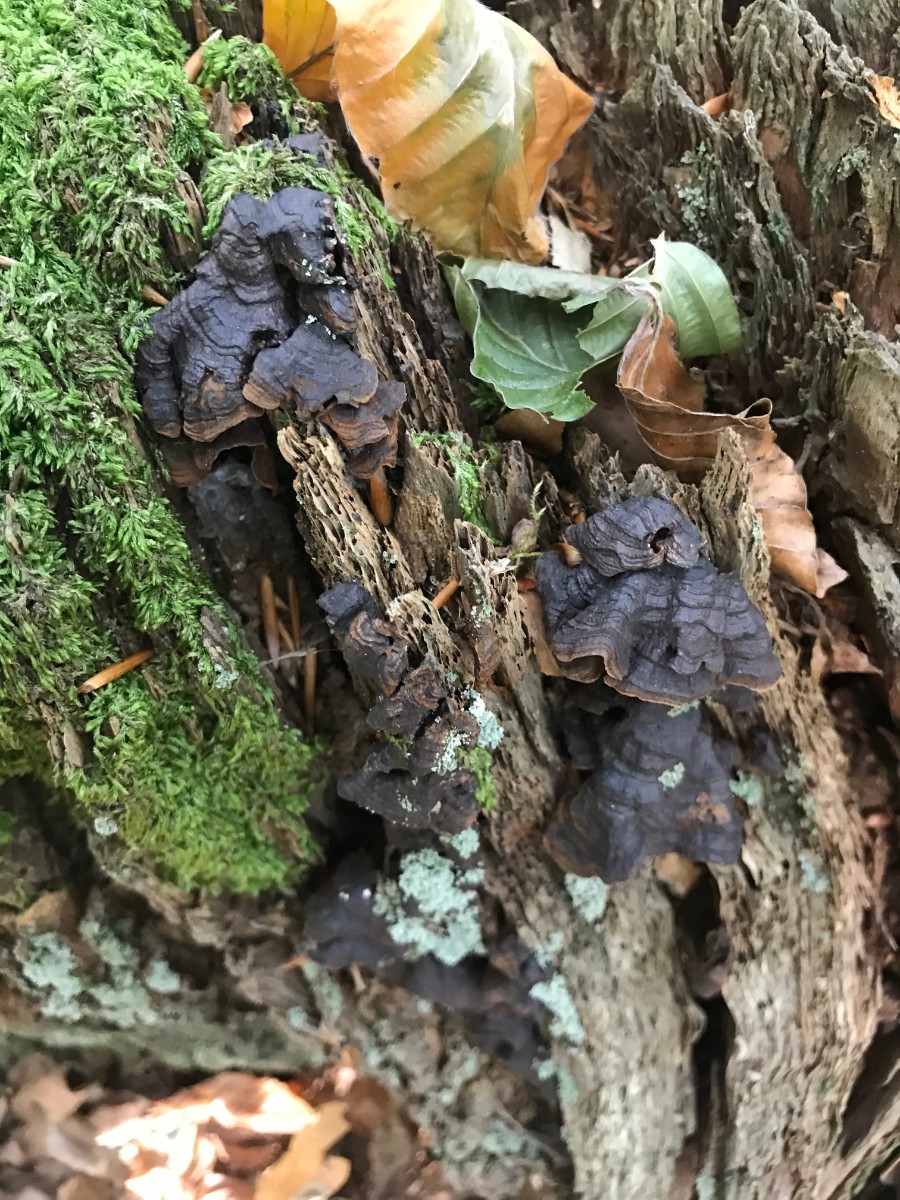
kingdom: Fungi
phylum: Basidiomycota
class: Agaricomycetes
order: Hymenochaetales
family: Hymenochaetaceae
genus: Hymenochaete
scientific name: Hymenochaete rubiginosa
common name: stiv ruslædersvamp
